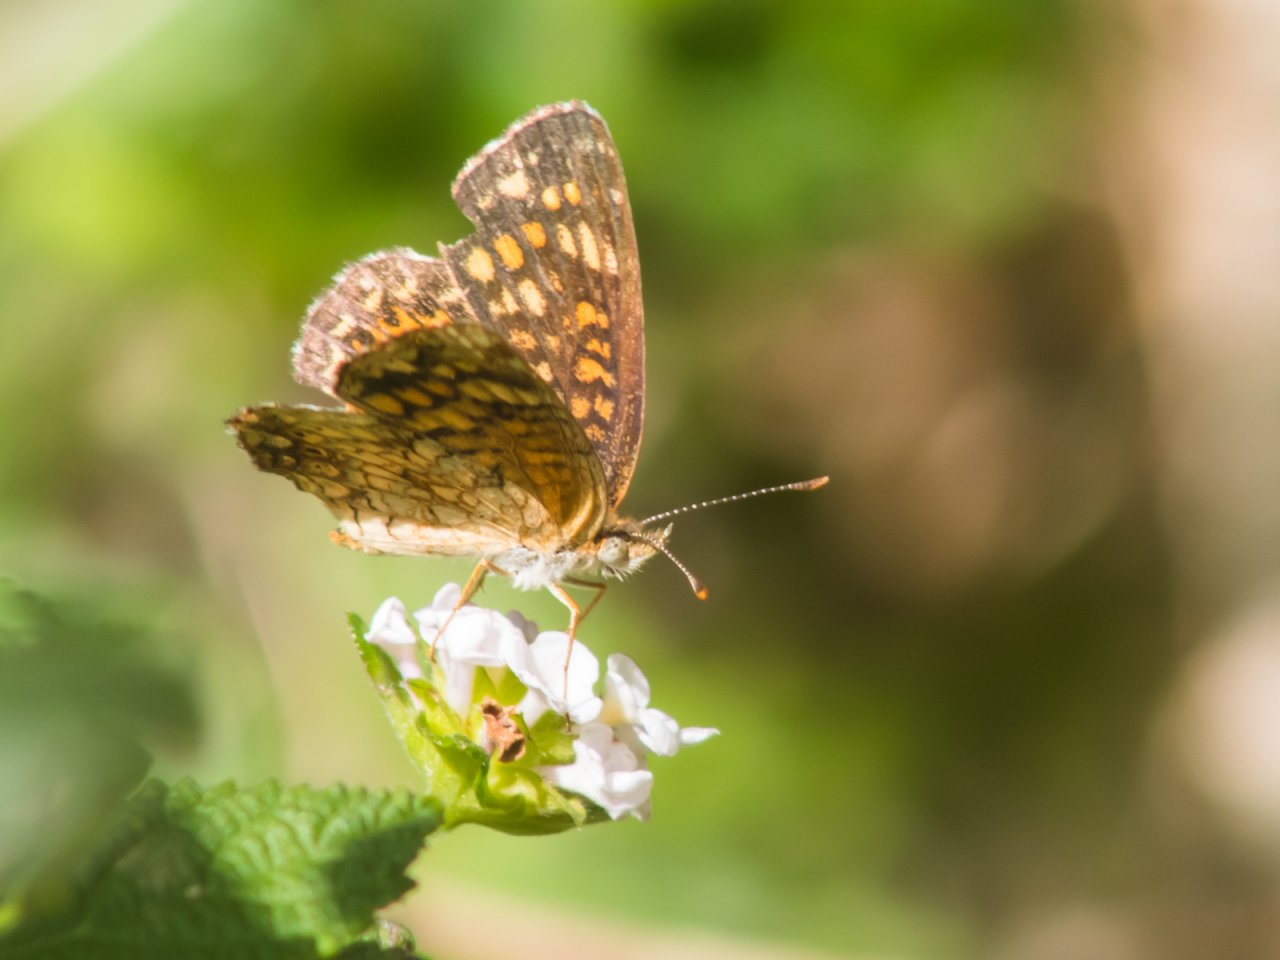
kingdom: Animalia
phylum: Arthropoda
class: Insecta
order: Lepidoptera
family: Nymphalidae
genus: Phyciodes
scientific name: Phyciodes vesta
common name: Vesta Crescent
